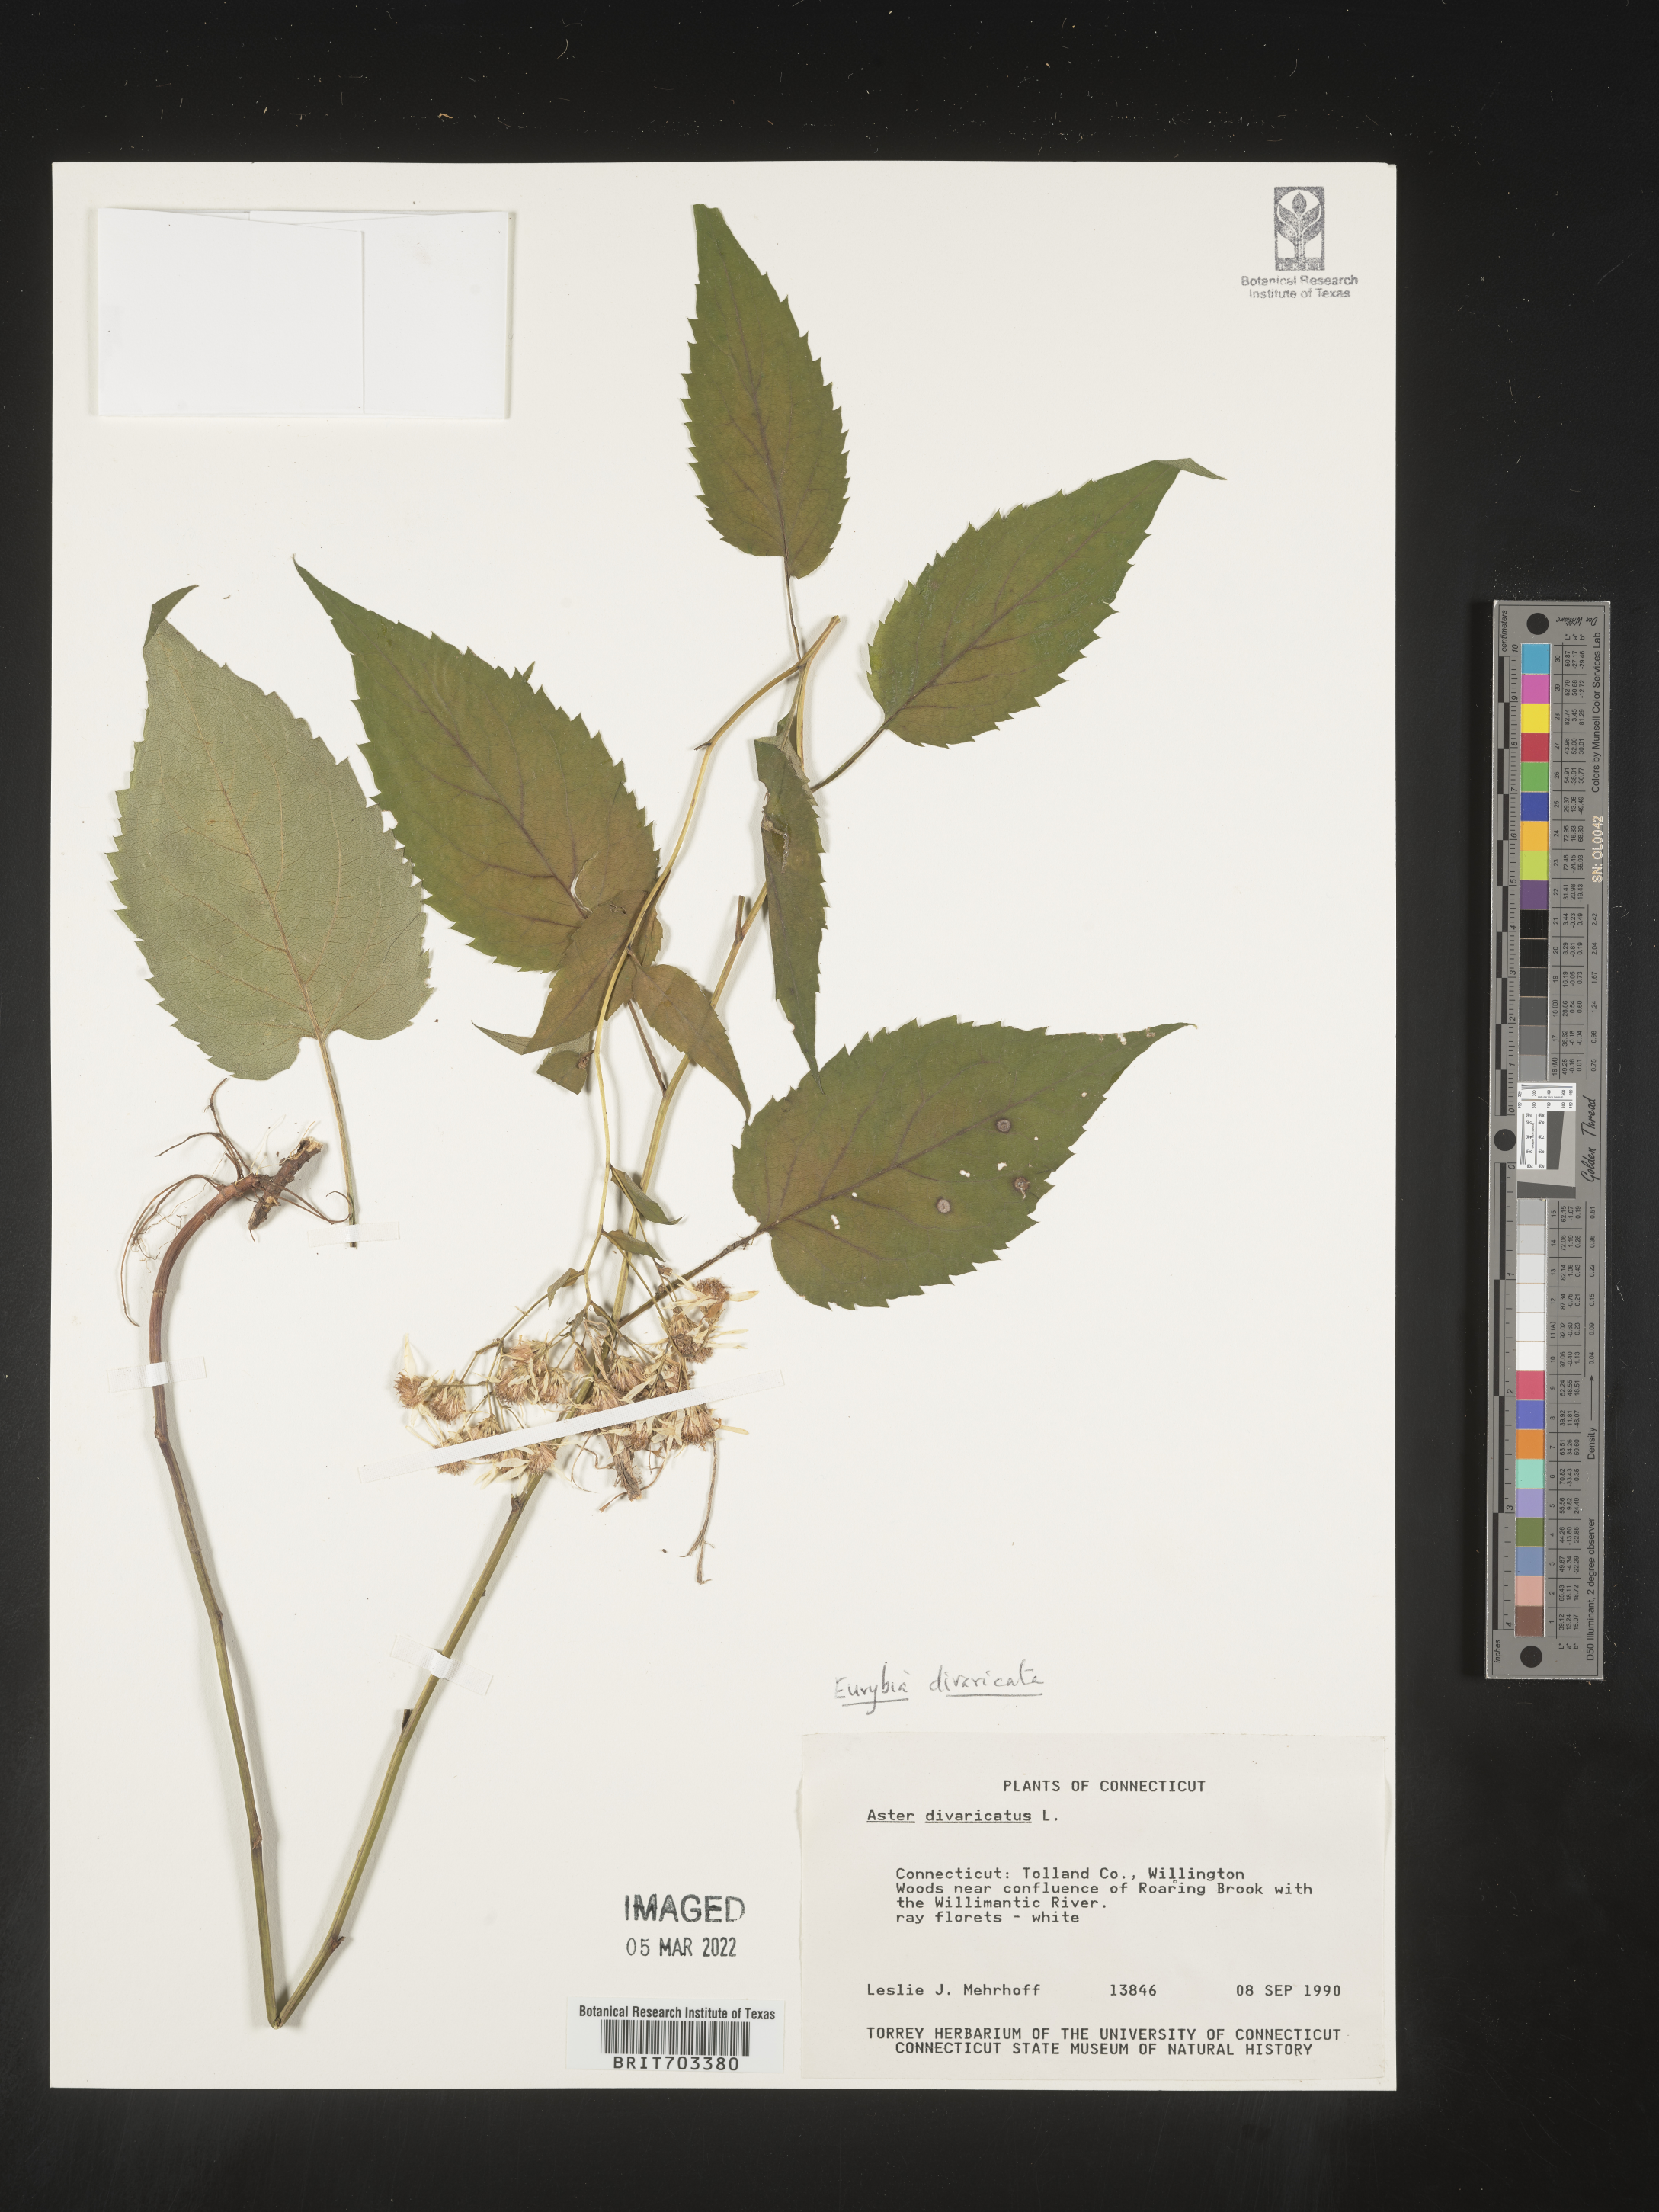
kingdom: Plantae
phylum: Tracheophyta
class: Magnoliopsida
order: Asterales
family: Asteraceae
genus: Eurybia
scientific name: Eurybia divaricata
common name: White wood aster
